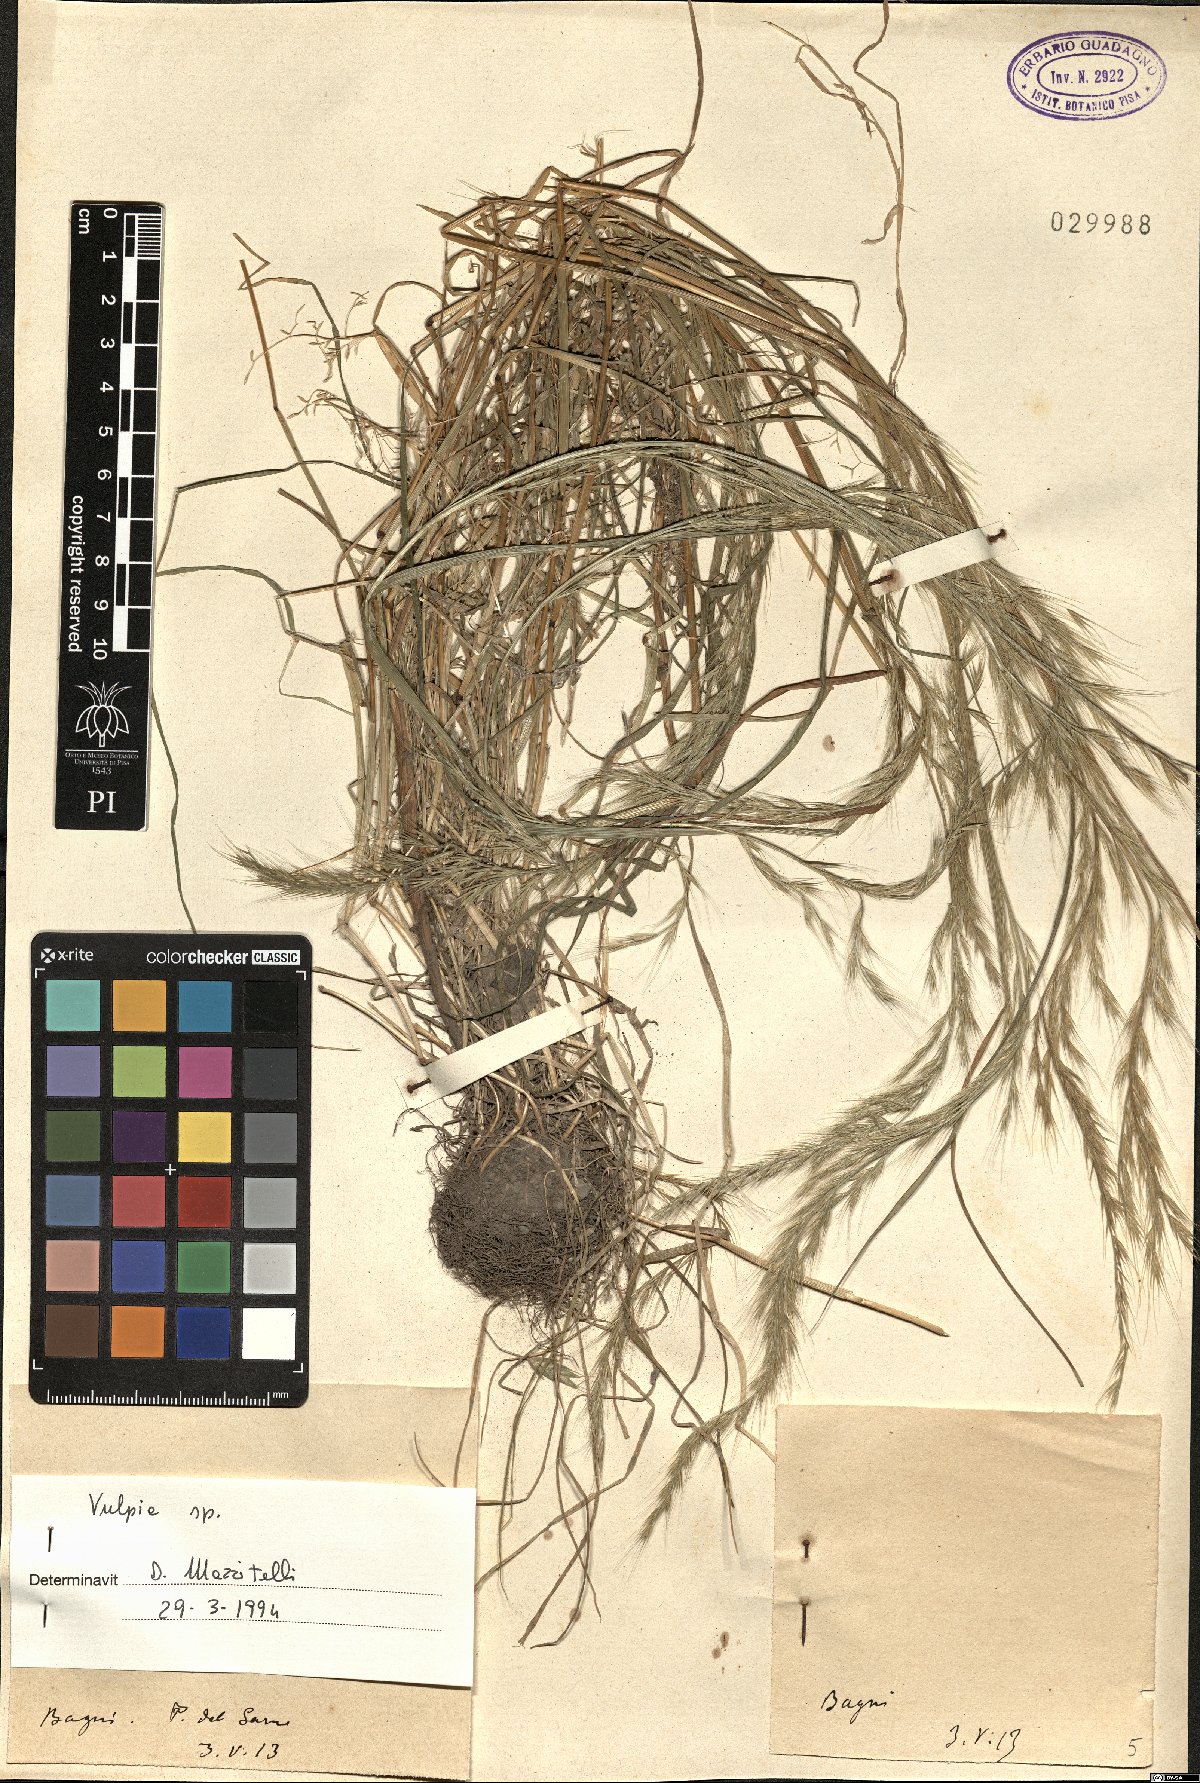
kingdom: Plantae
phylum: Tracheophyta
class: Liliopsida
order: Poales
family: Poaceae
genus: Festuca
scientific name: Festuca
